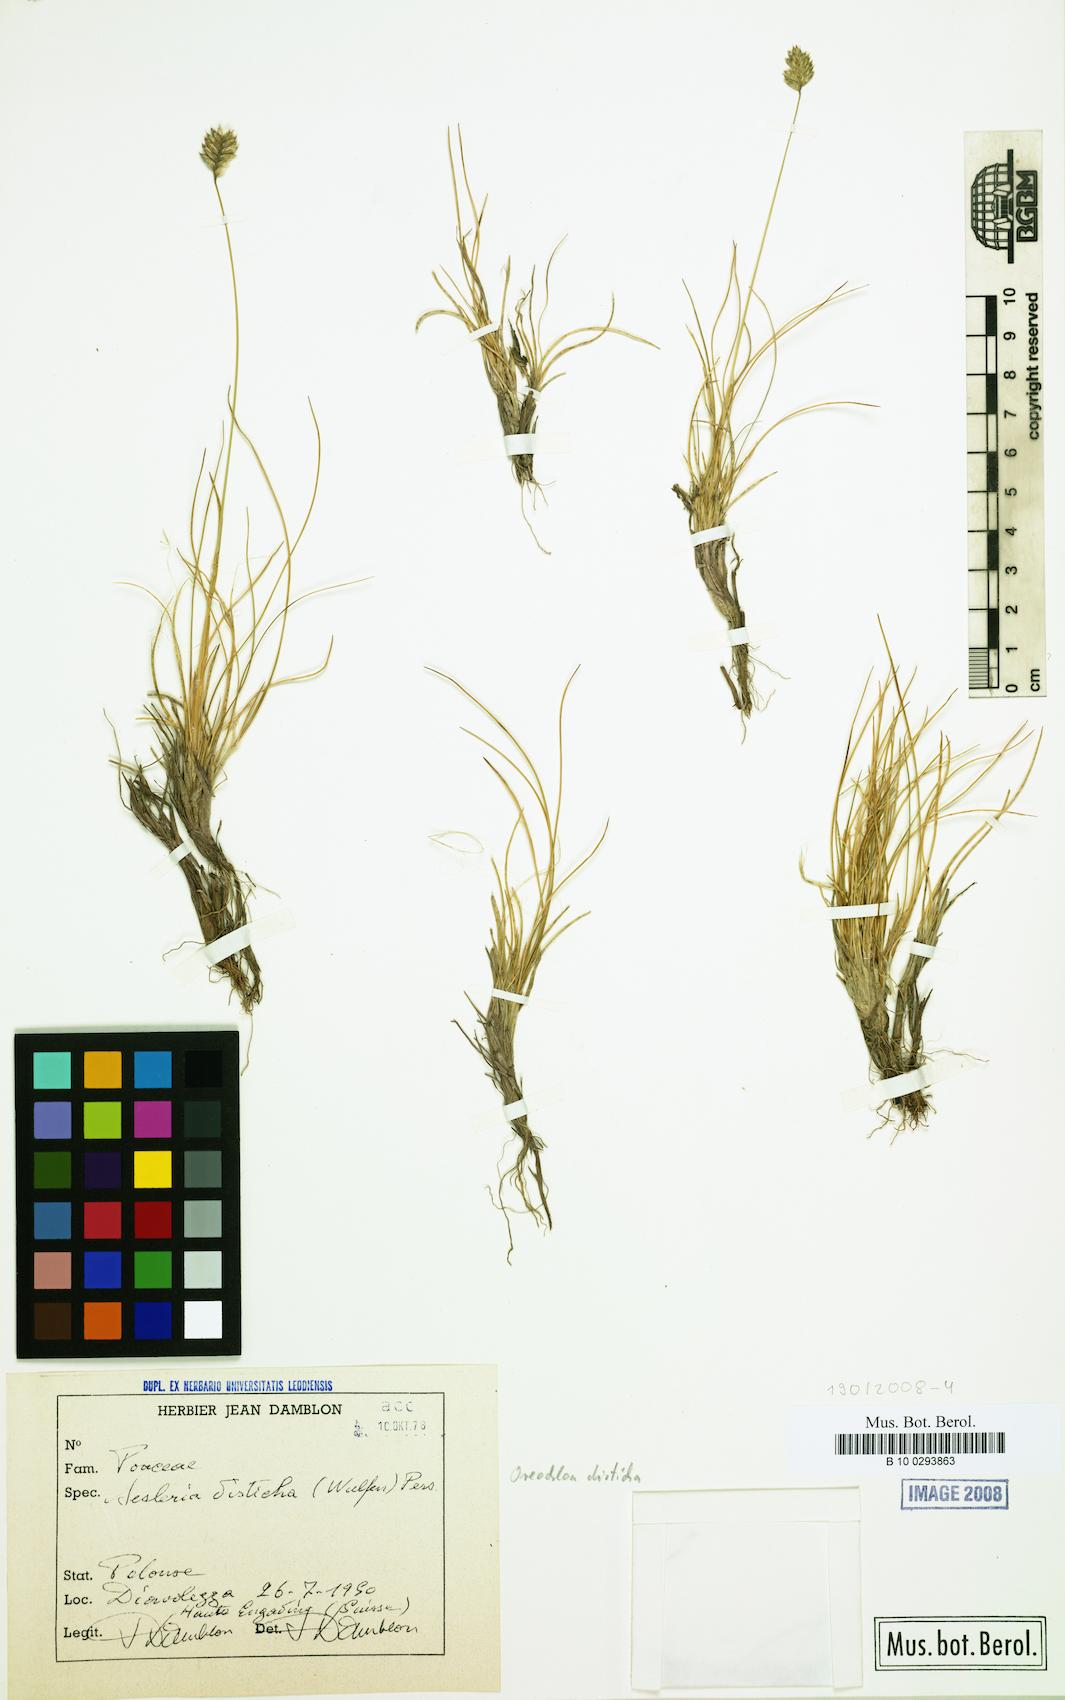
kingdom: Plantae
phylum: Tracheophyta
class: Liliopsida
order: Poales
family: Poaceae
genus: Oreochloa
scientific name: Oreochloa disticha
